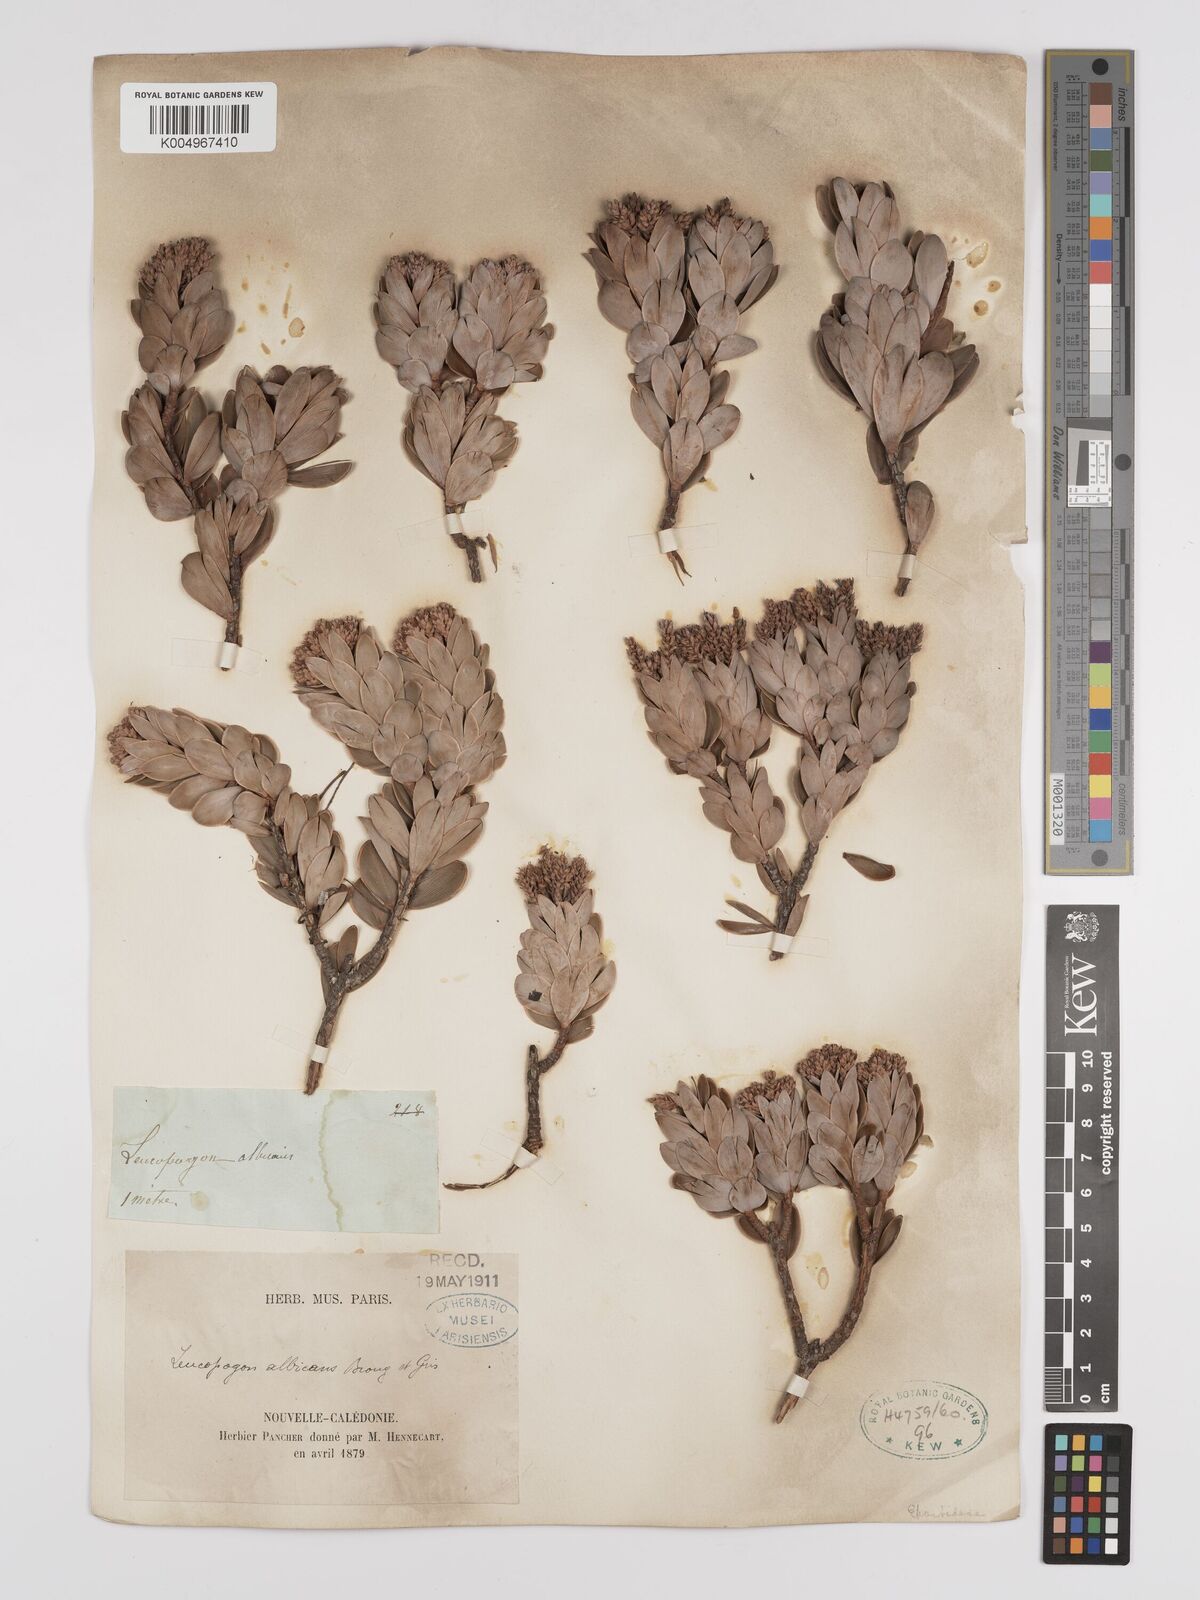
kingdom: Plantae
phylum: Tracheophyta
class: Magnoliopsida
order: Ericales
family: Ericaceae
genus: Cyathopsis
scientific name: Cyathopsis albicans
